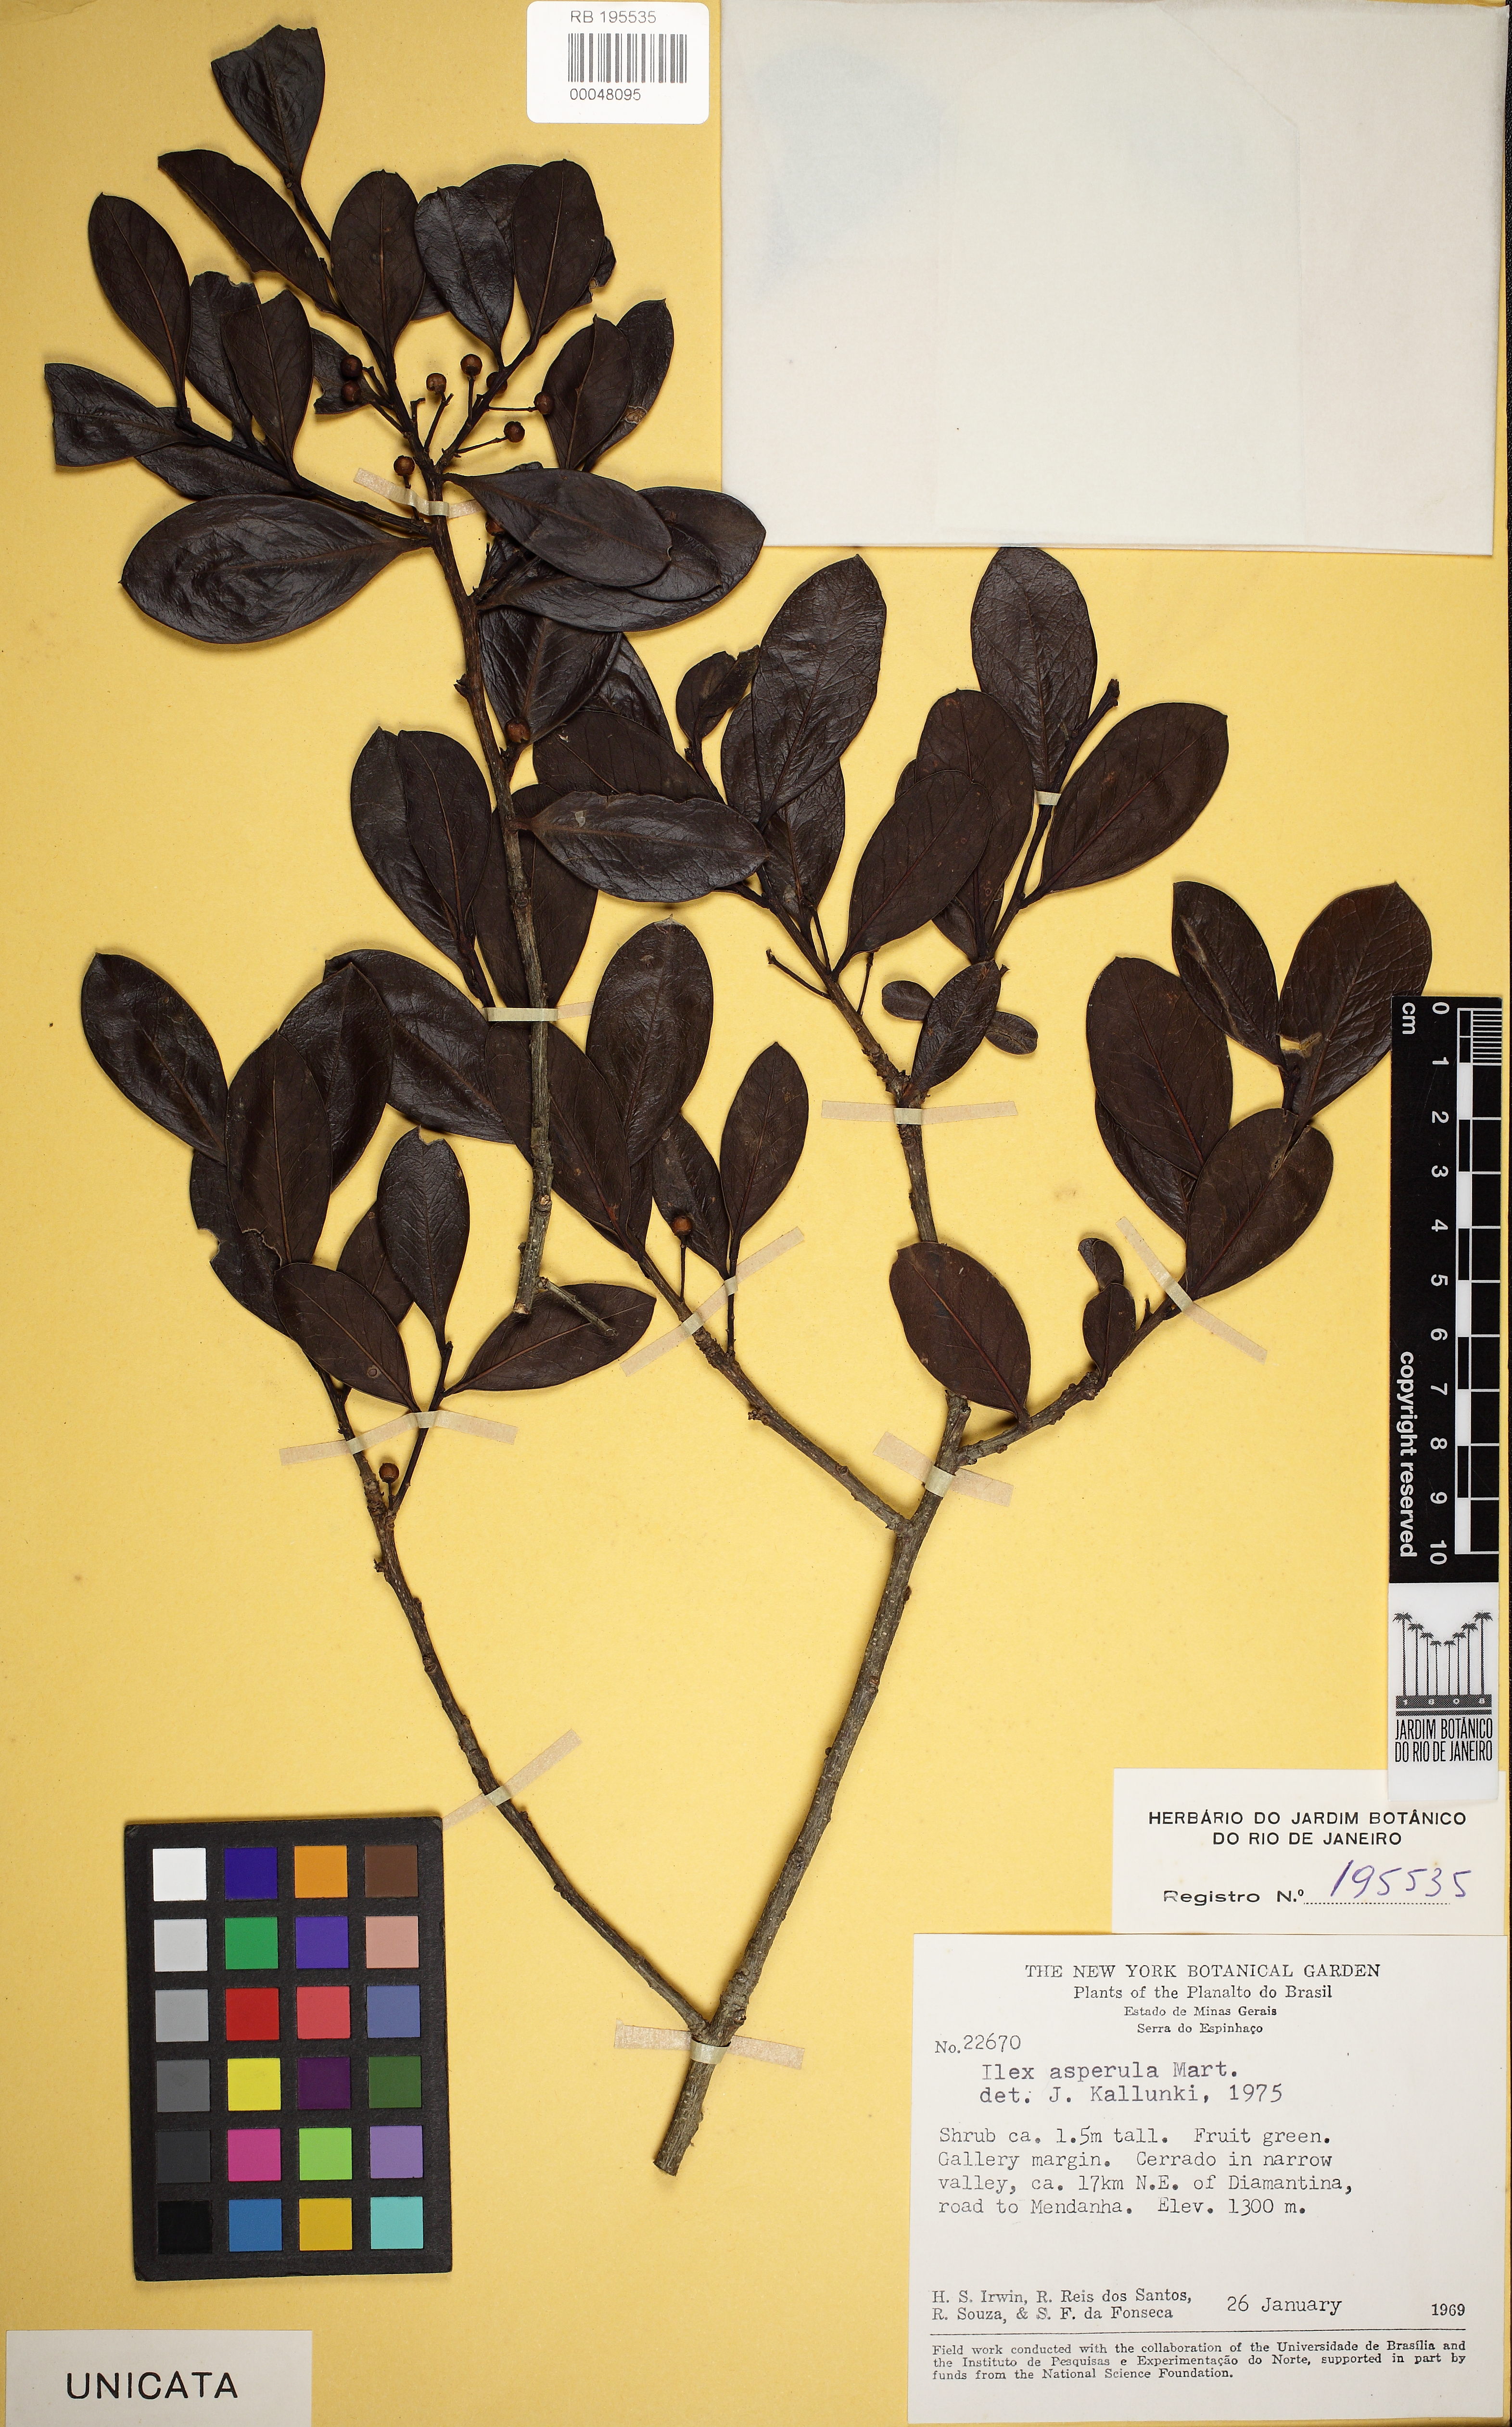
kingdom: Plantae
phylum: Tracheophyta
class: Magnoliopsida
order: Aquifoliales
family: Aquifoliaceae
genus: Ilex
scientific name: Ilex asperula
